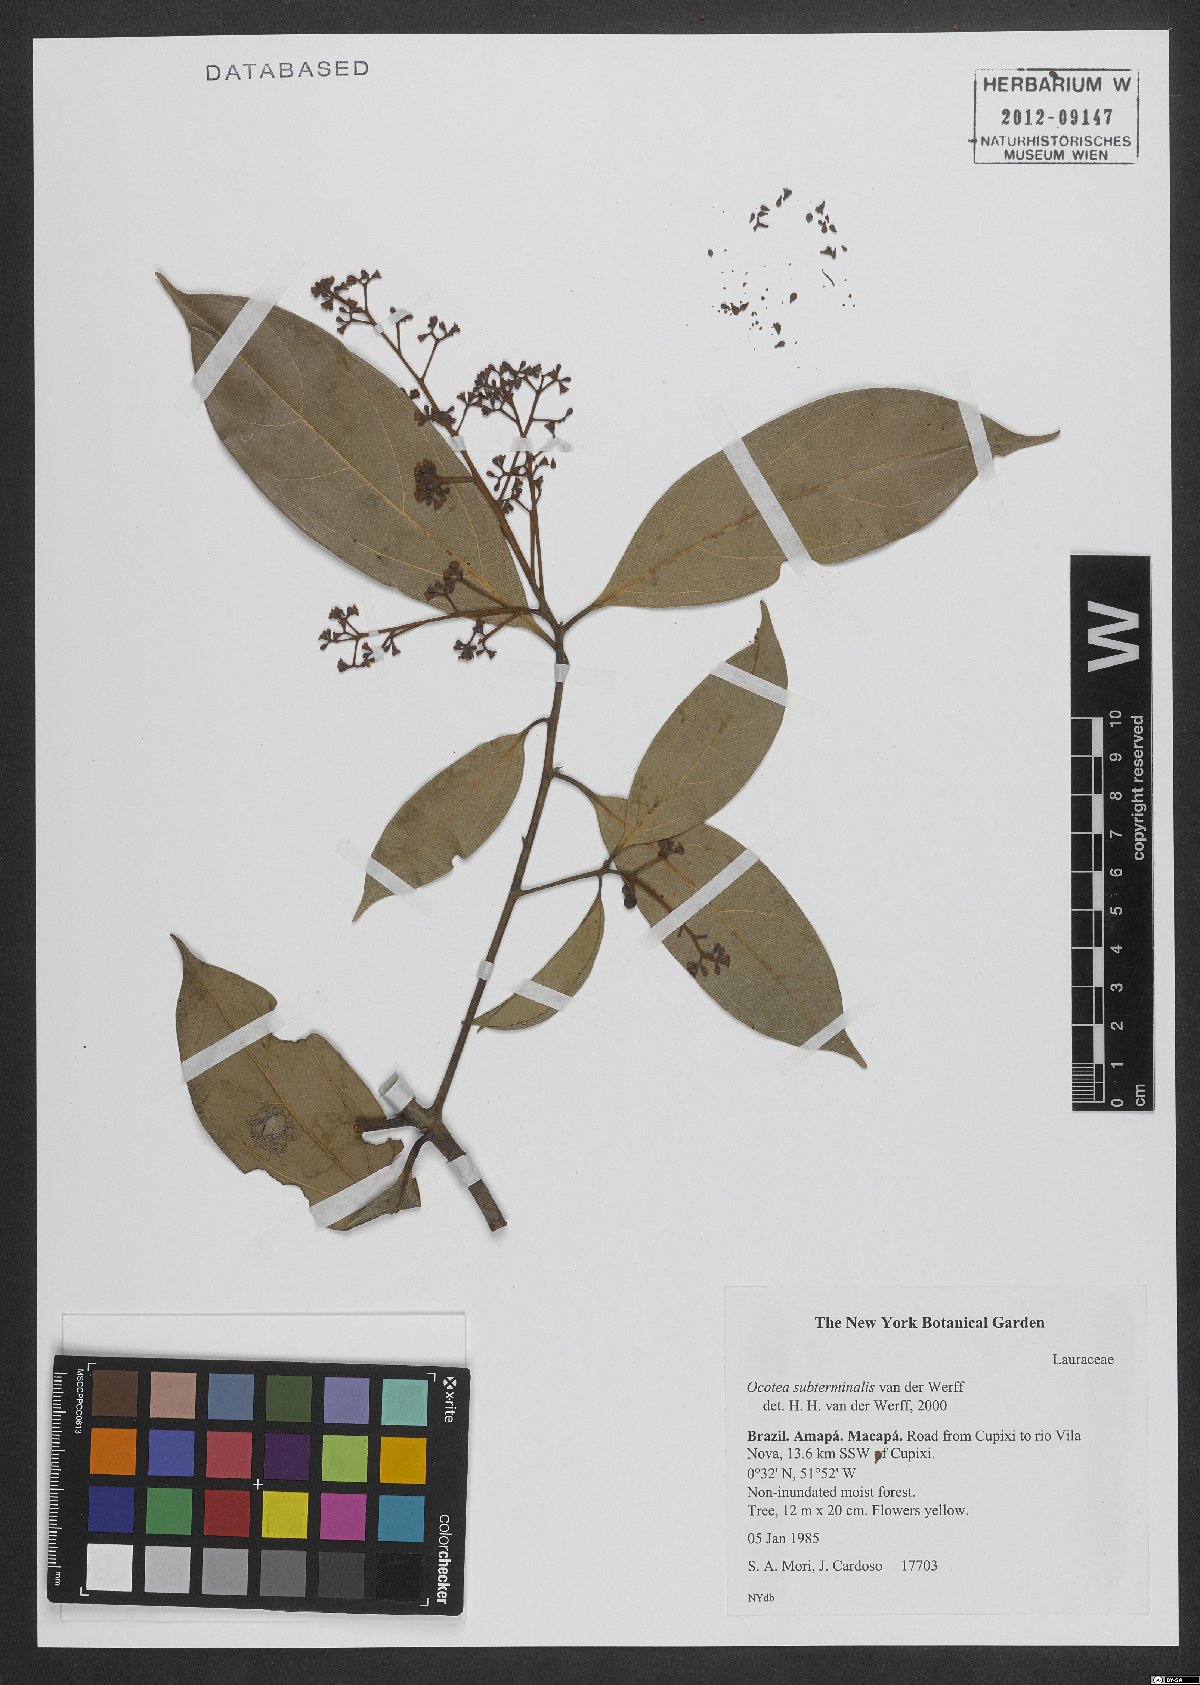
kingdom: Plantae
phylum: Tracheophyta
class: Magnoliopsida
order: Laurales
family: Lauraceae
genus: Ocotea
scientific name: Ocotea subterminalis
